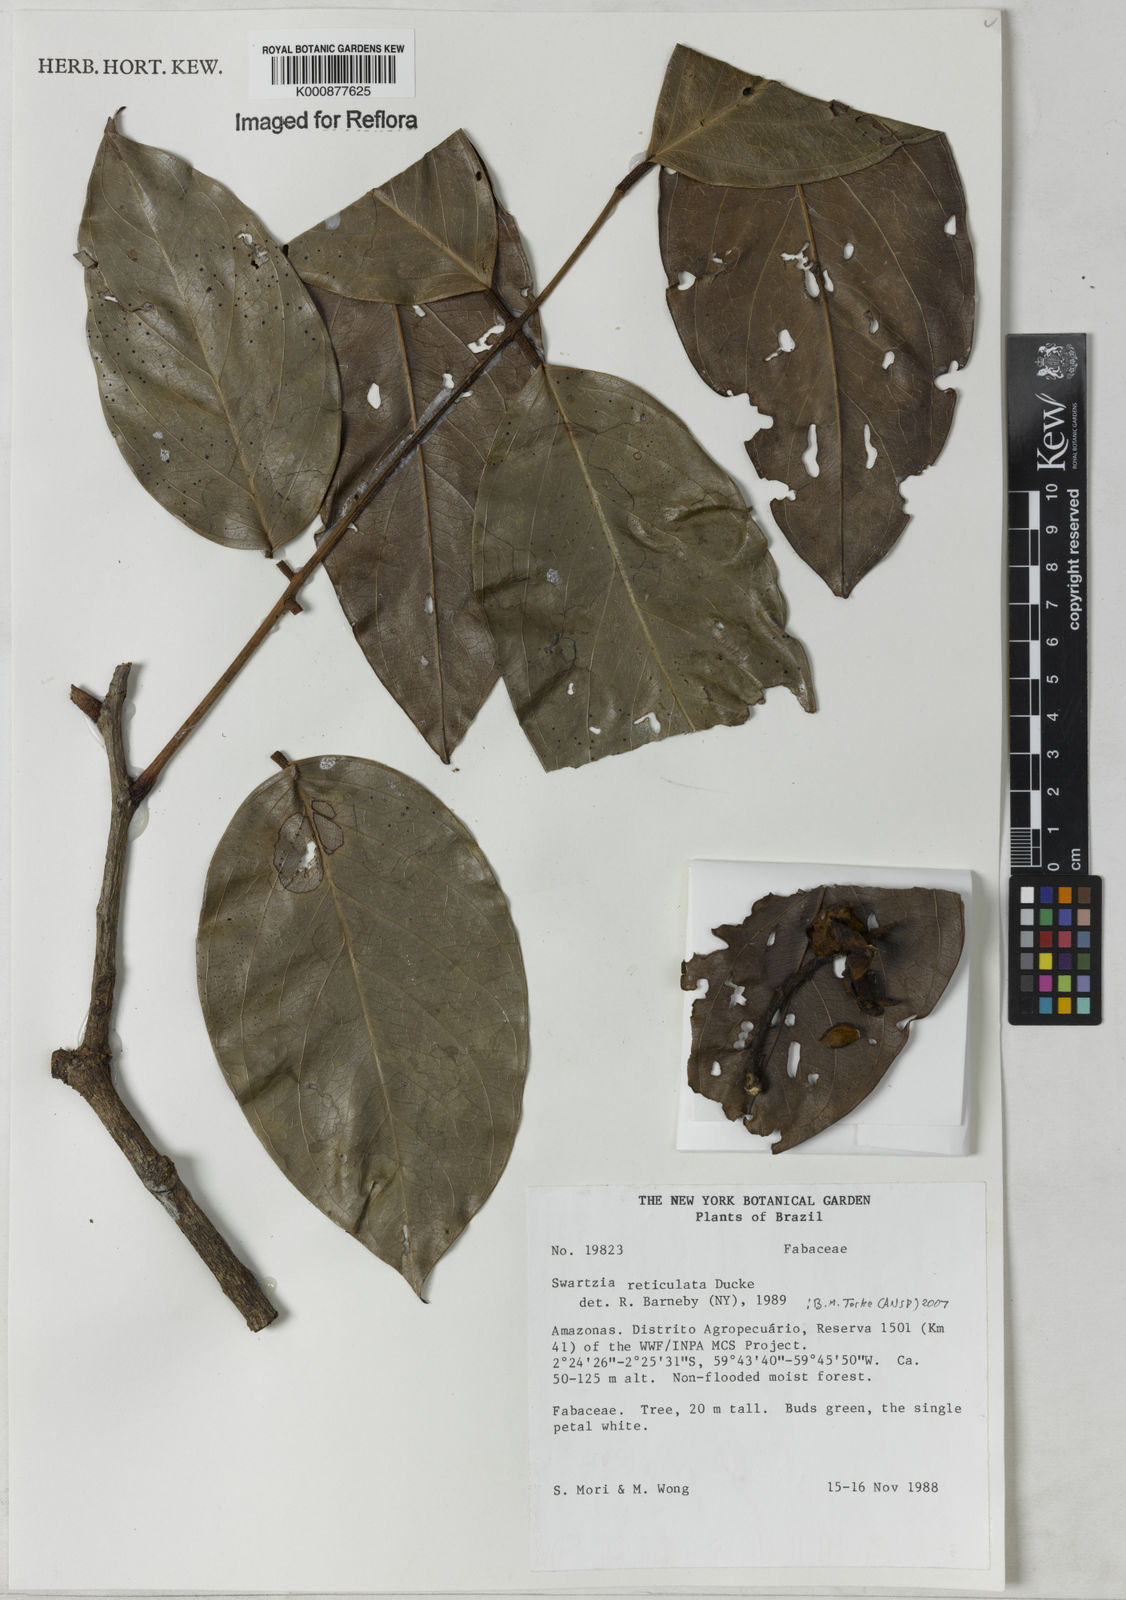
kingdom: Plantae
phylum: Tracheophyta
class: Magnoliopsida
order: Fabales
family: Fabaceae
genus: Swartzia
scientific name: Swartzia reticulata
